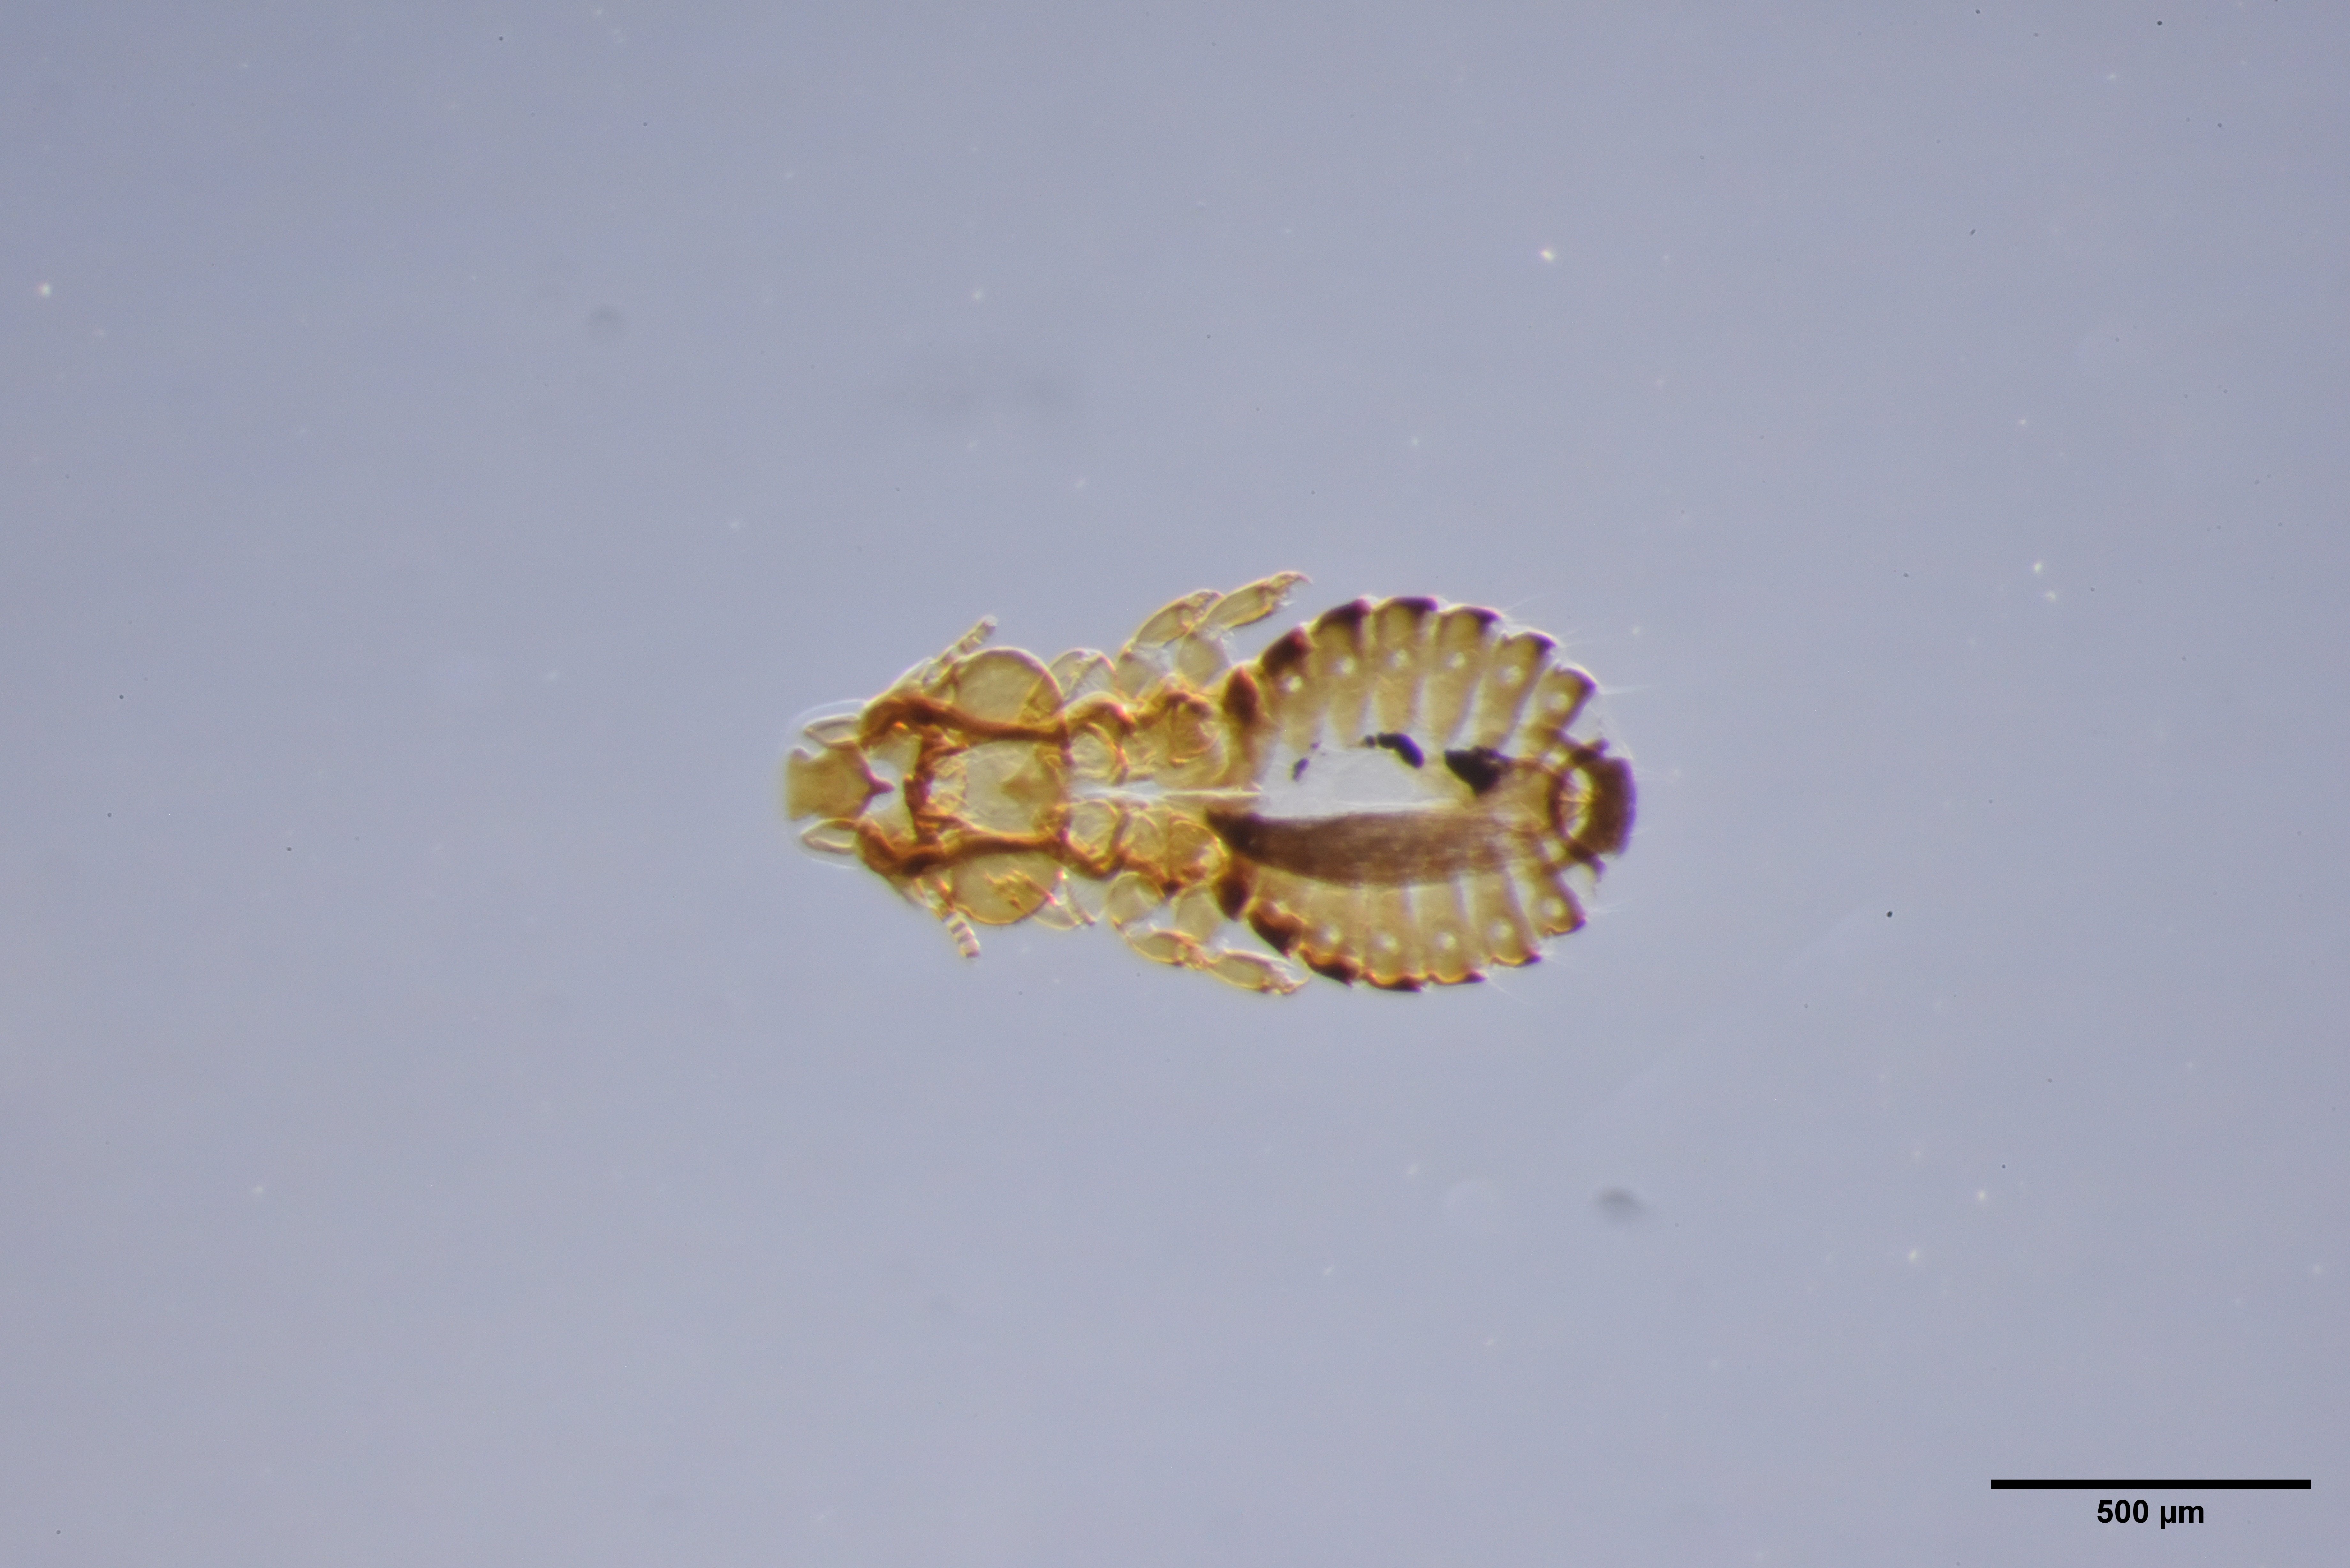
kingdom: Animalia
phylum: Arthropoda
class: Insecta
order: Psocodea
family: Philopteridae
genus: Anatoecus
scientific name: Anatoecus dentatus
